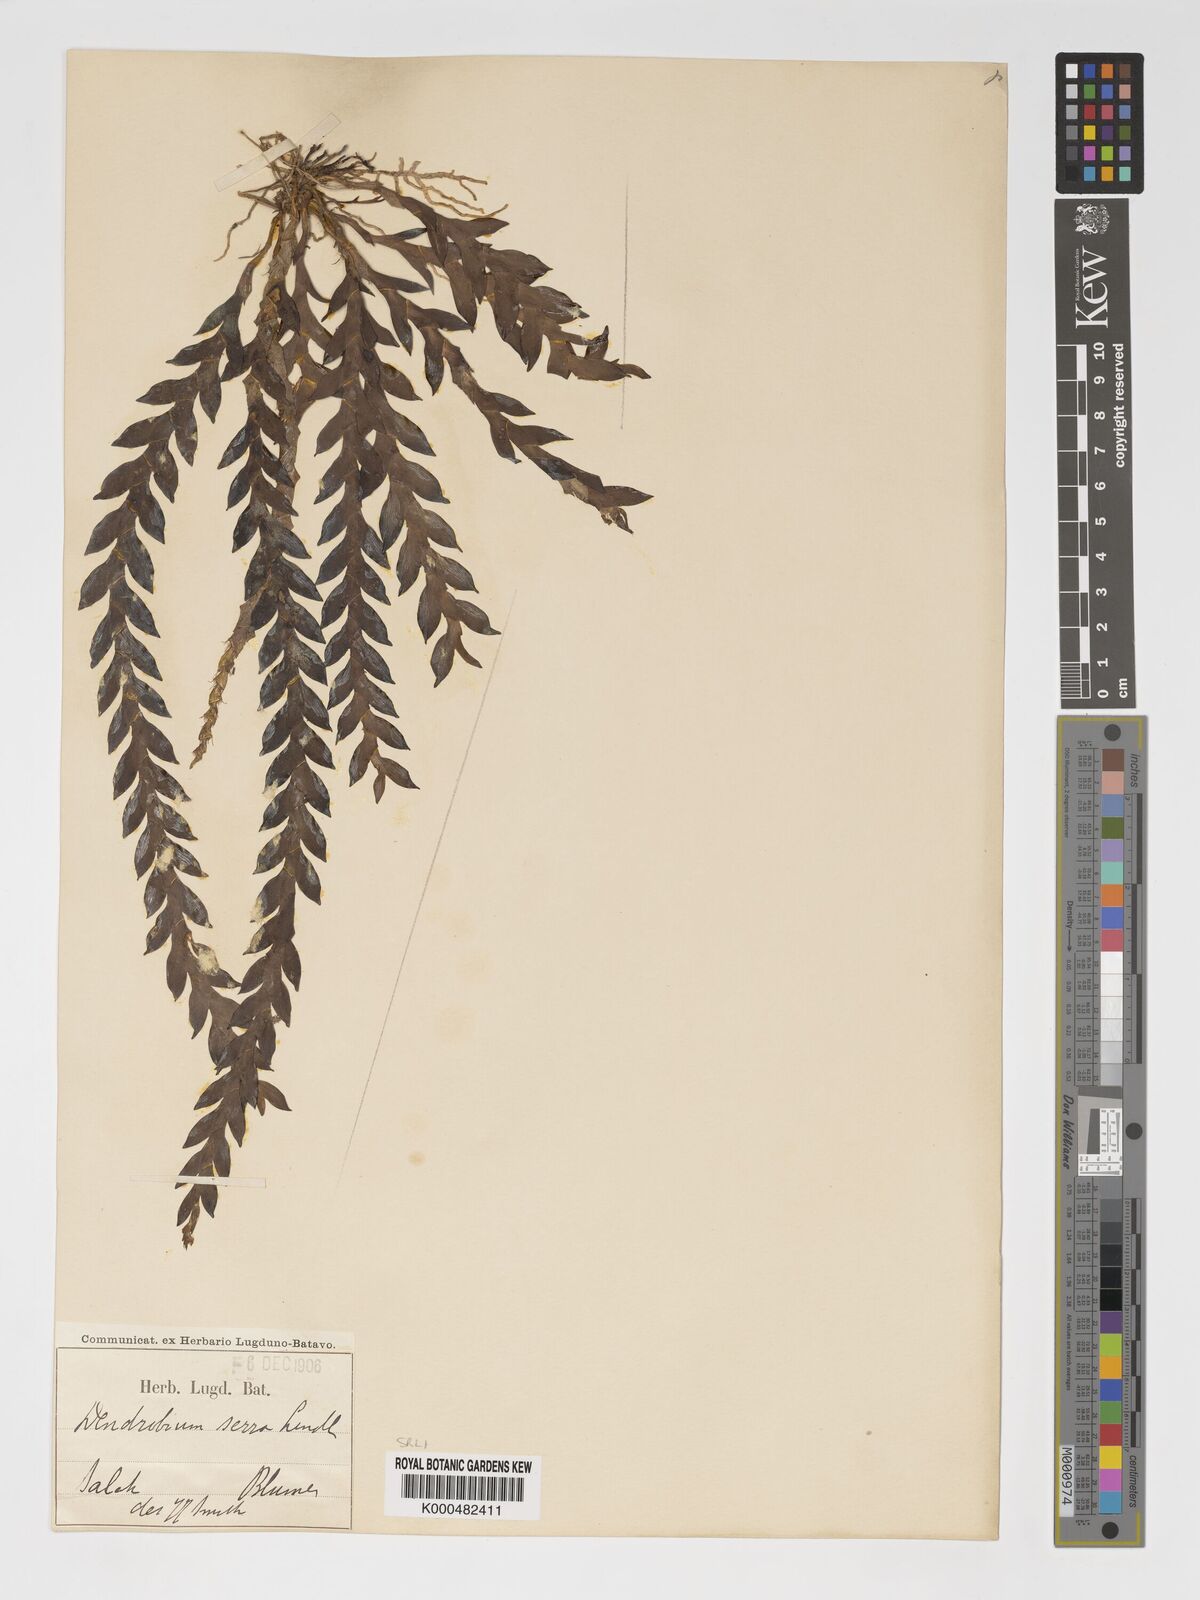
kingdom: Plantae
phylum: Tracheophyta
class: Liliopsida
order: Asparagales
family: Orchidaceae
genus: Dendrobium
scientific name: Dendrobium aloifolium
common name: Aloe-like dendrobium
